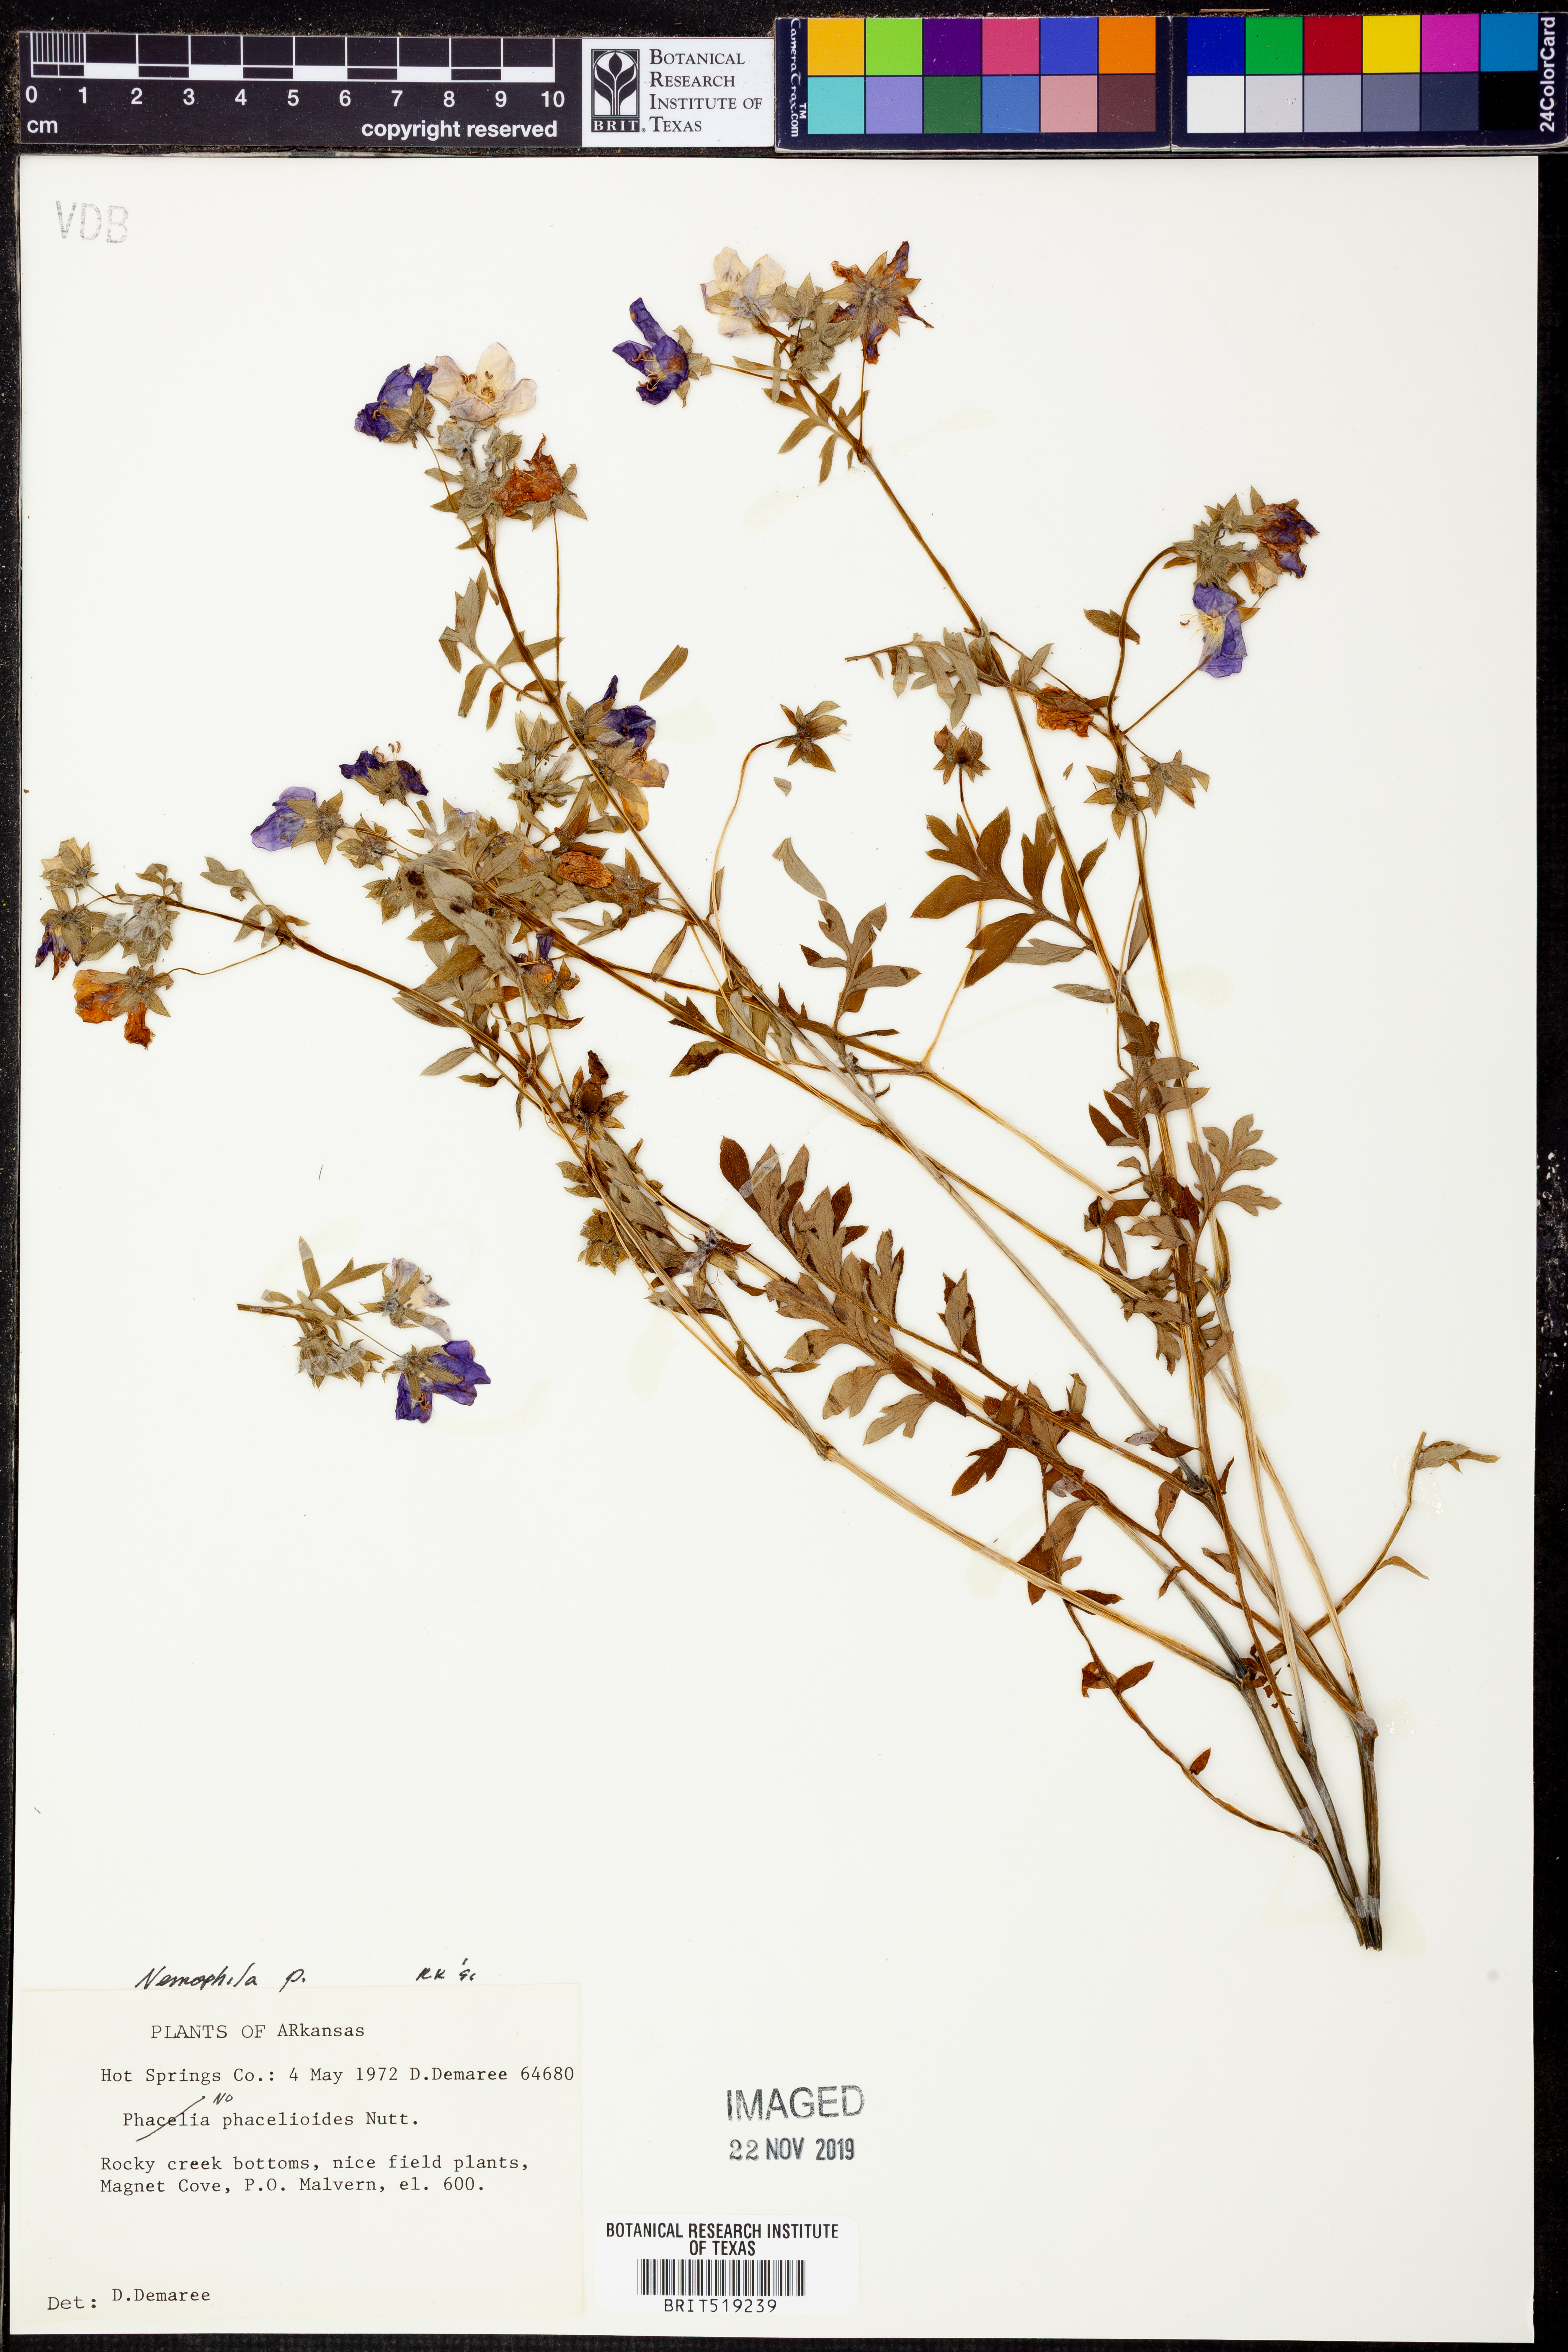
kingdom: Plantae
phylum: Tracheophyta
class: Magnoliopsida
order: Boraginales
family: Hydrophyllaceae
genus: Nemophila
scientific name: Nemophila phacelioides
